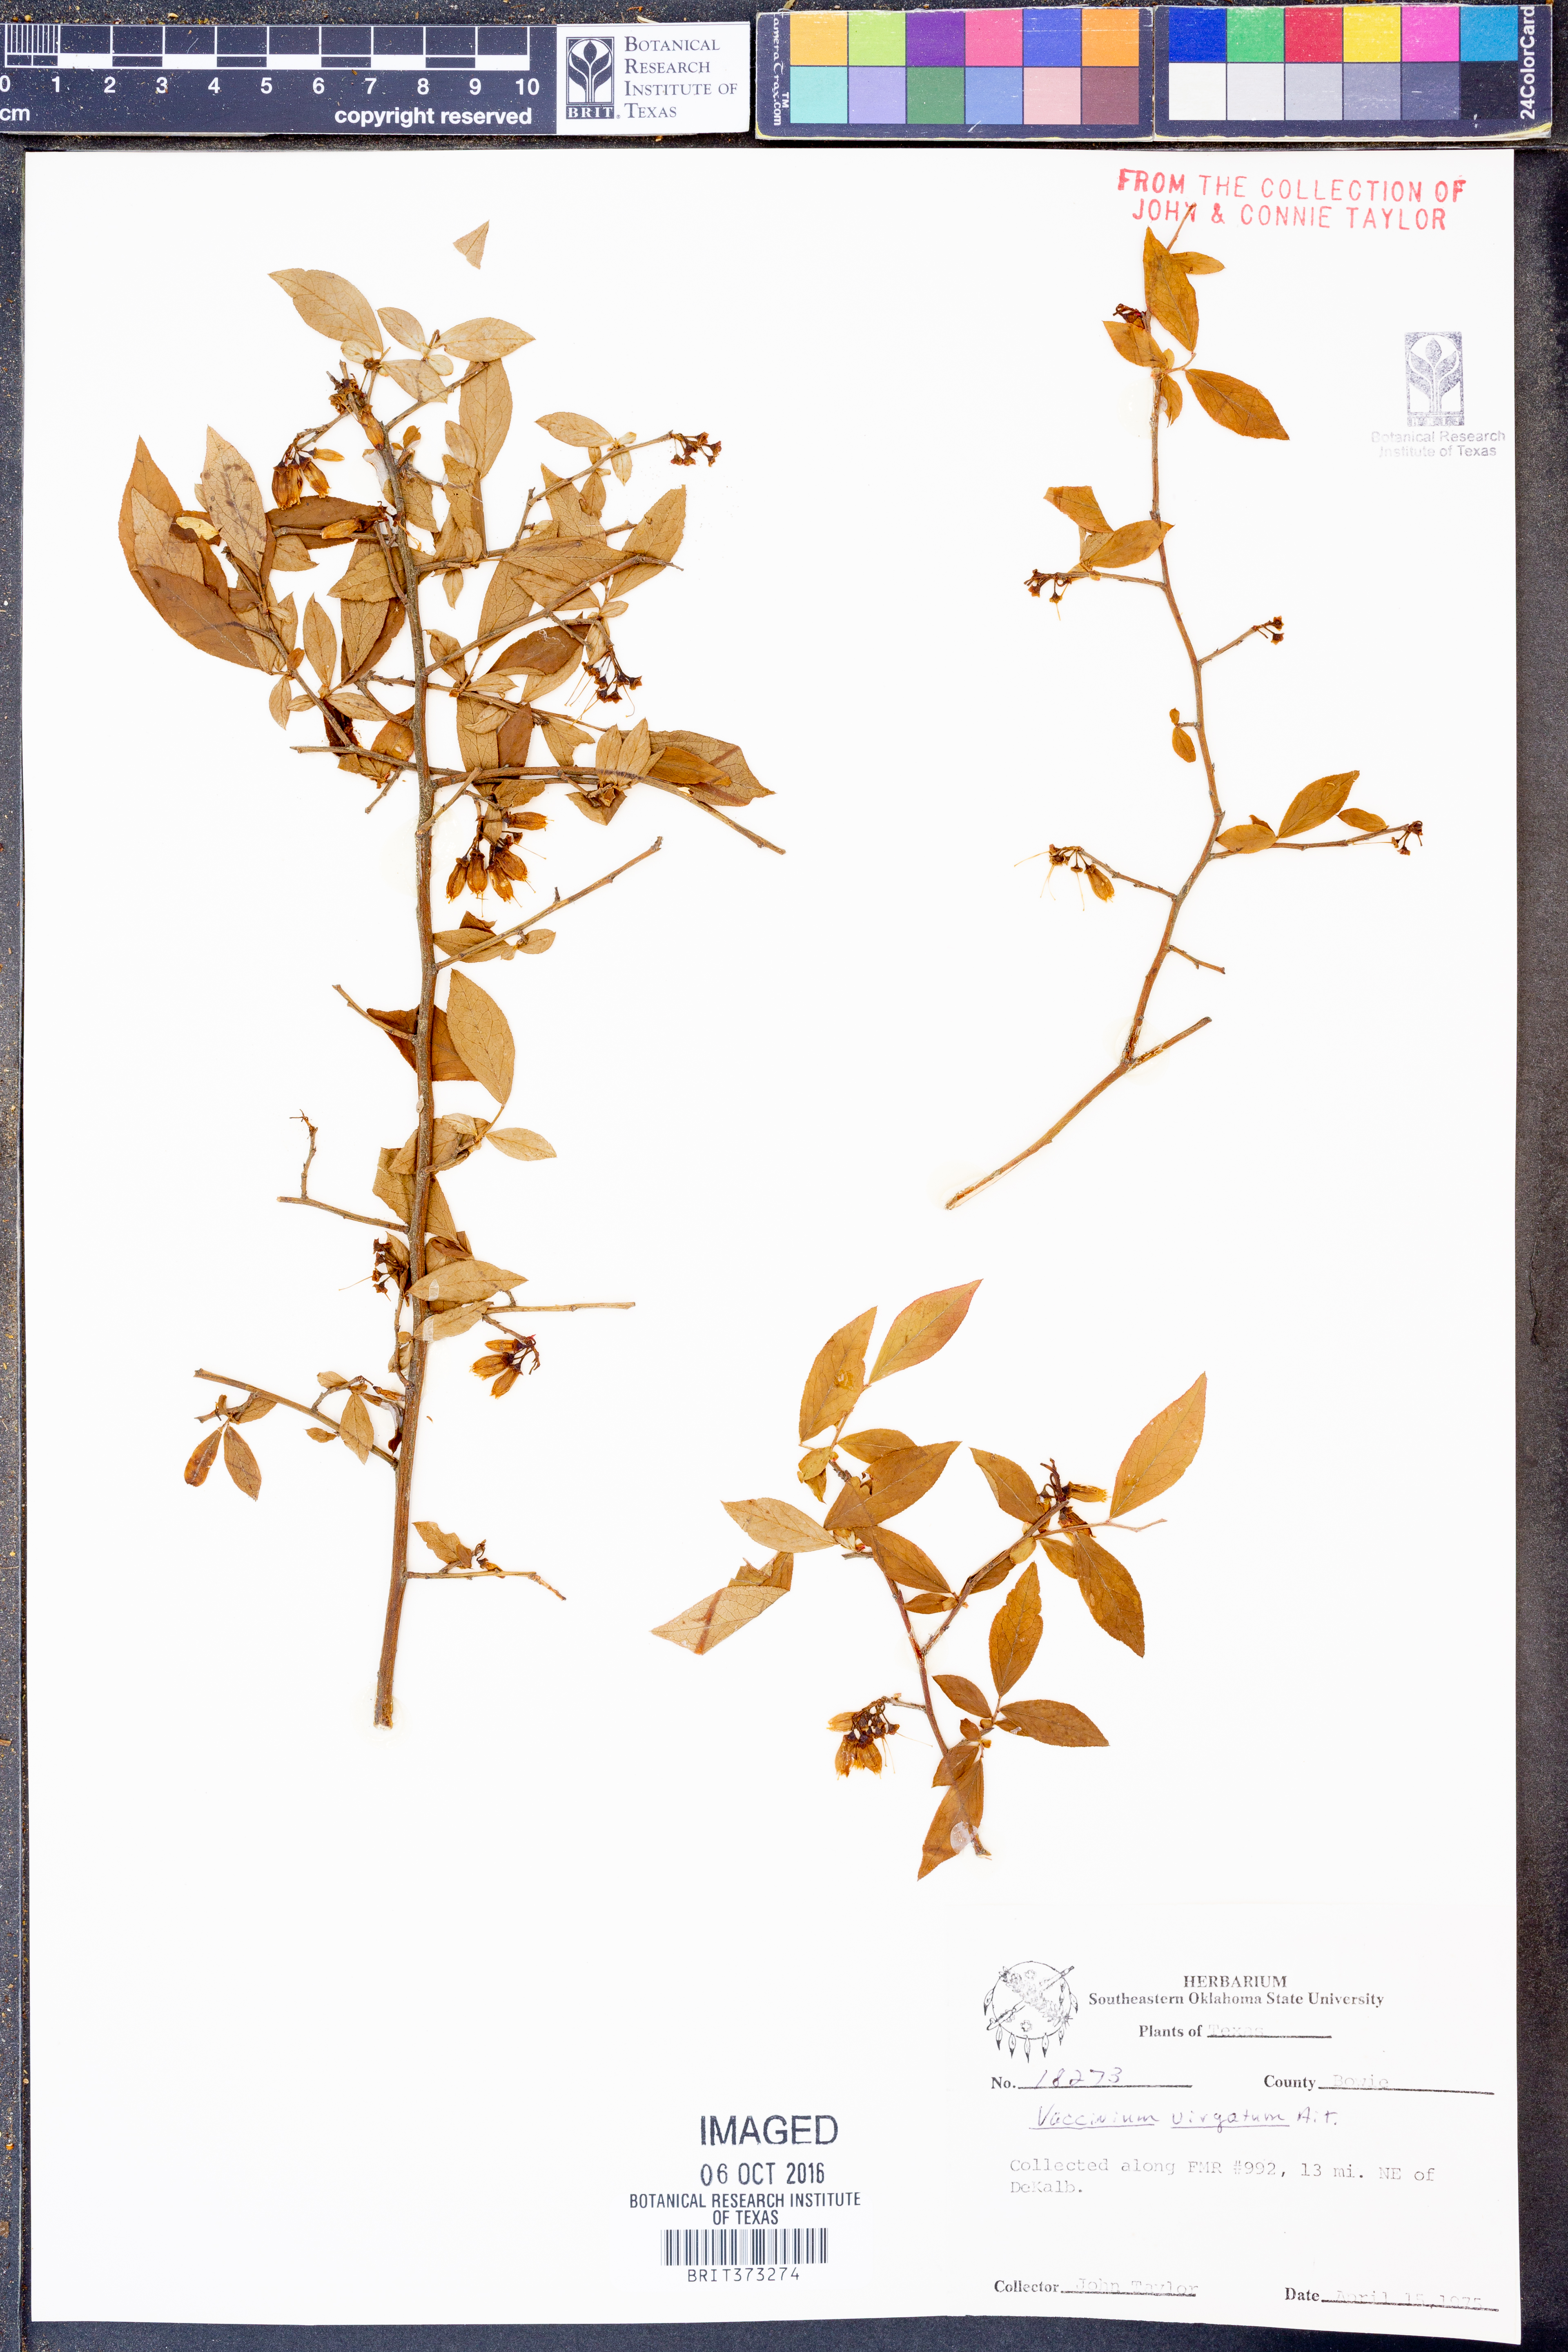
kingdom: Plantae
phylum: Tracheophyta
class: Magnoliopsida
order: Ericales
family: Ericaceae
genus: Vaccinium
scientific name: Vaccinium corymbosum
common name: Blueberry
